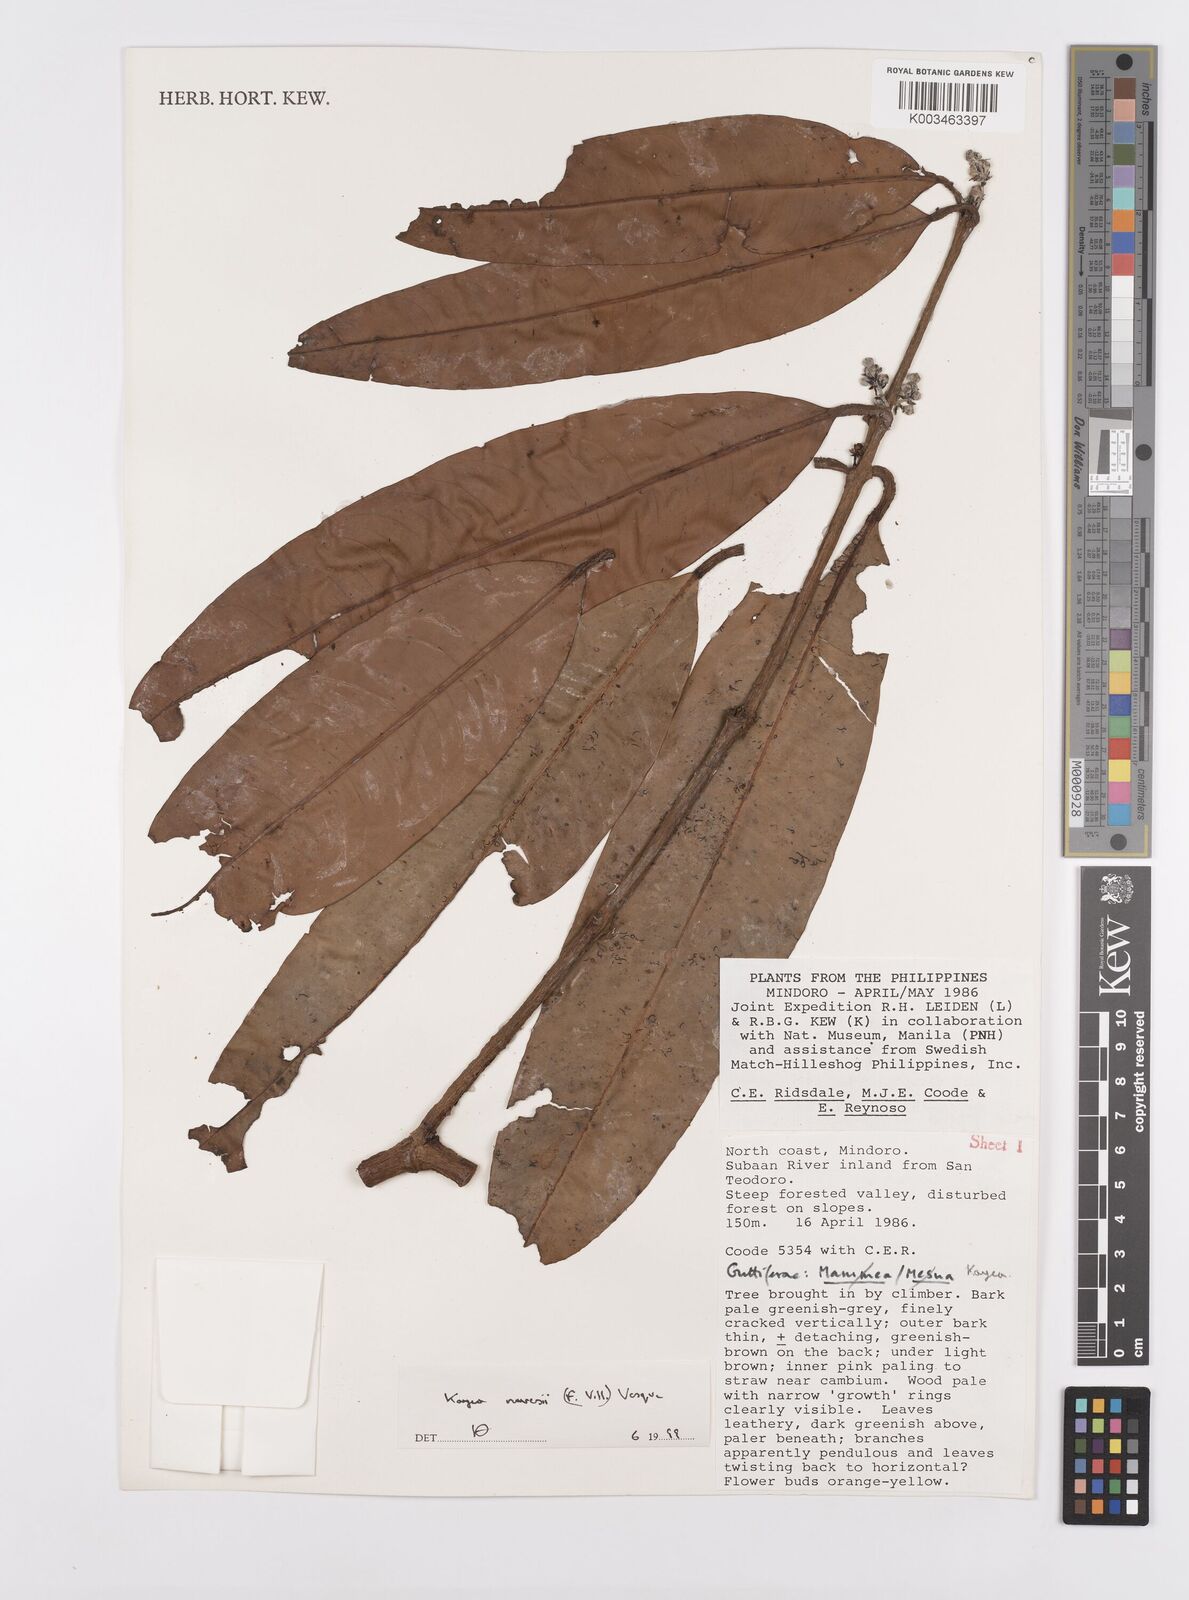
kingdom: Plantae
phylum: Tracheophyta
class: Magnoliopsida
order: Malpighiales
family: Calophyllaceae
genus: Kayea
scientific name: Kayea navesii
